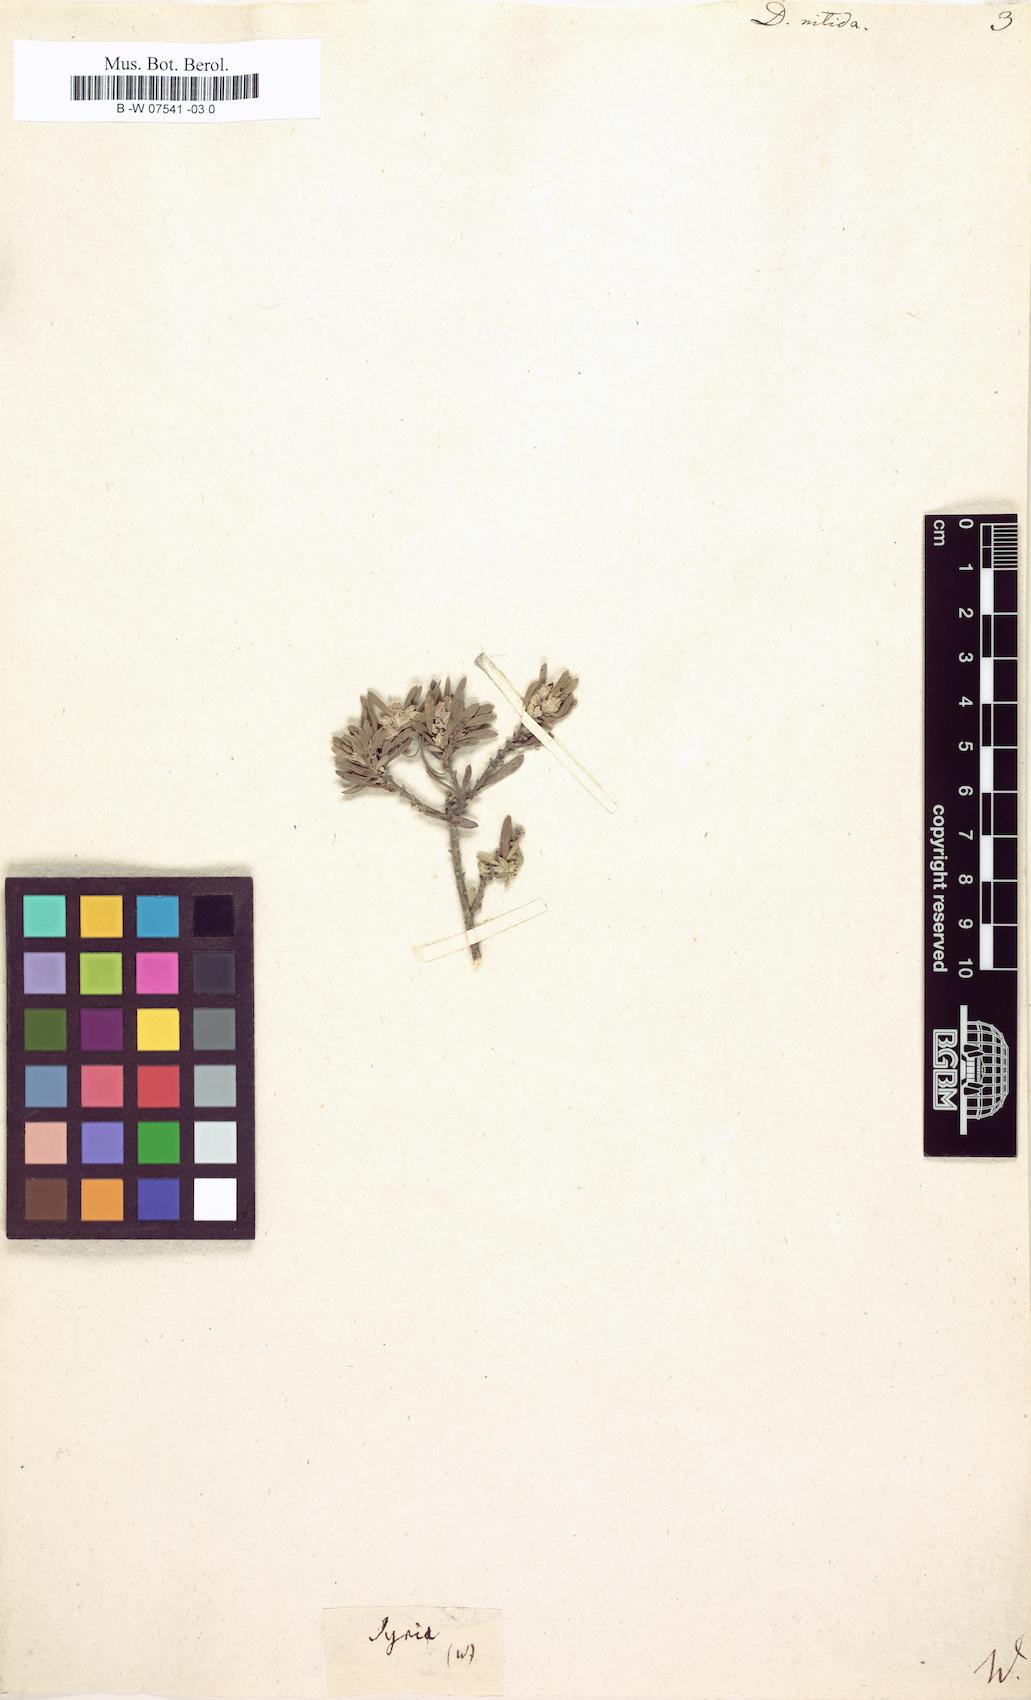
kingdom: Plantae
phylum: Tracheophyta
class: Magnoliopsida
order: Malvales
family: Thymelaeaceae
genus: Thymelaea
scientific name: Thymelaea argentata
